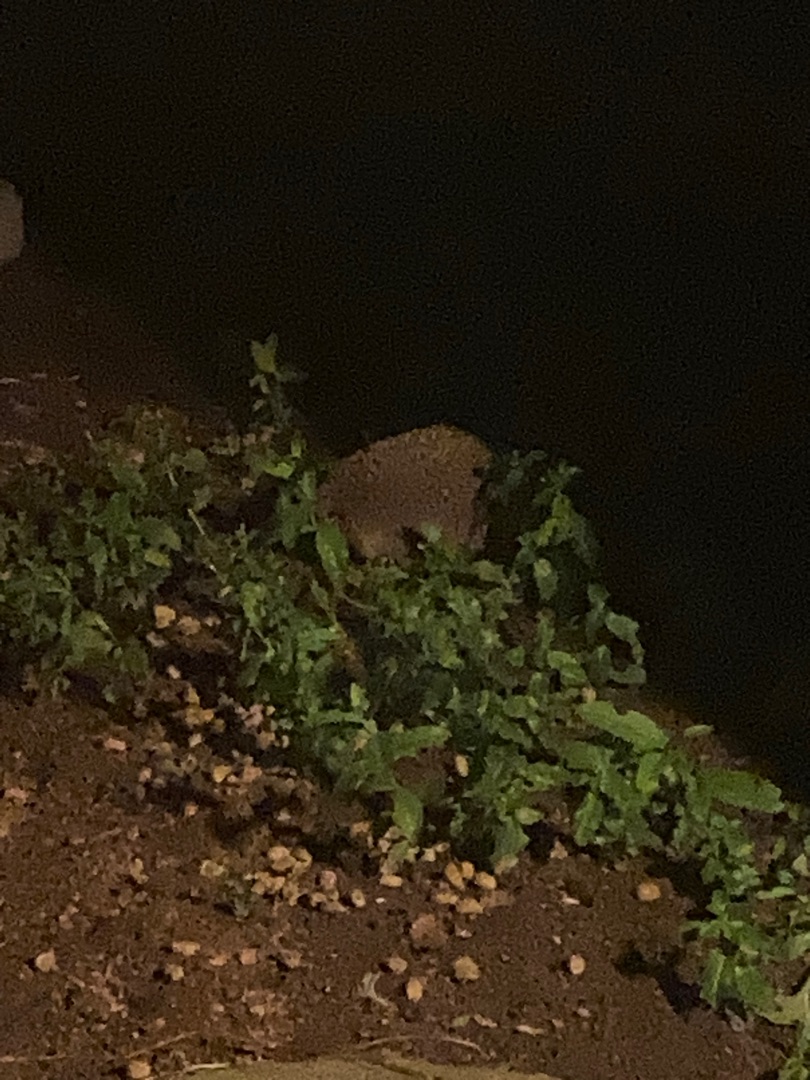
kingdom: Animalia
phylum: Chordata
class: Mammalia
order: Erinaceomorpha
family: Erinaceidae
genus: Erinaceus
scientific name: Erinaceus europaeus
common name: Pindsvin
